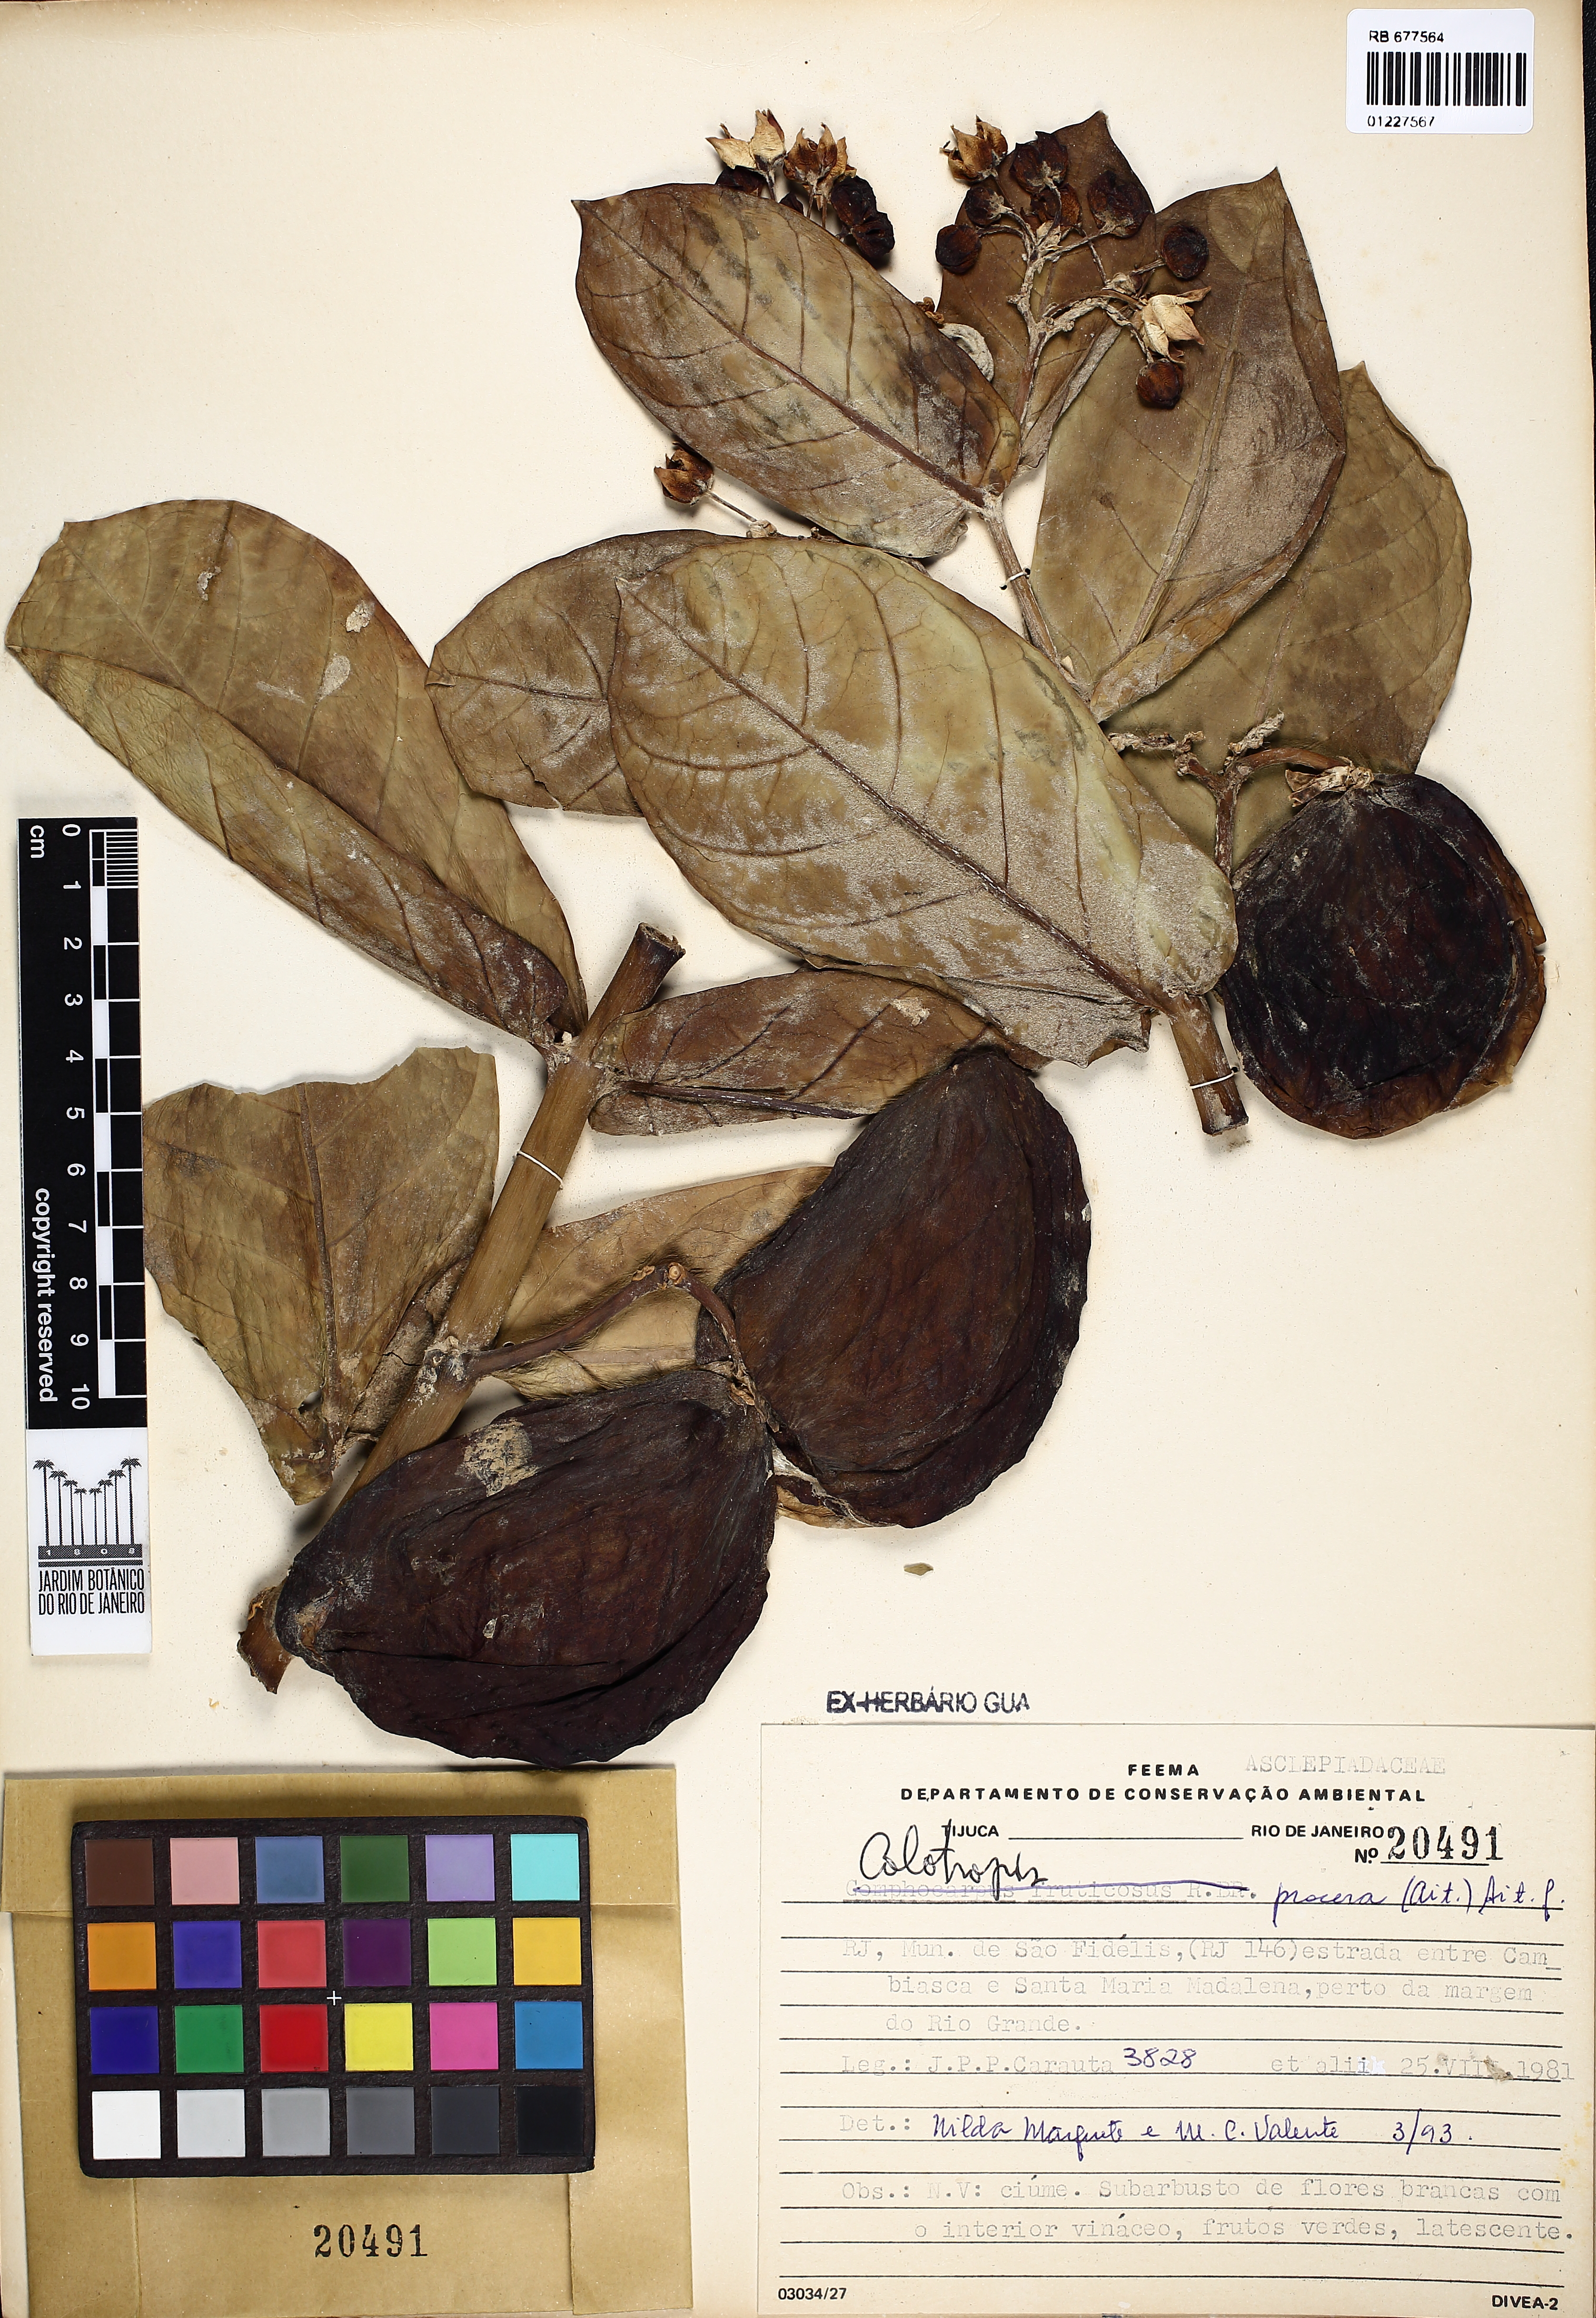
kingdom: Plantae
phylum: Tracheophyta
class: Magnoliopsida
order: Gentianales
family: Apocynaceae
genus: Calotropis
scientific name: Calotropis procera
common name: Roostertree
